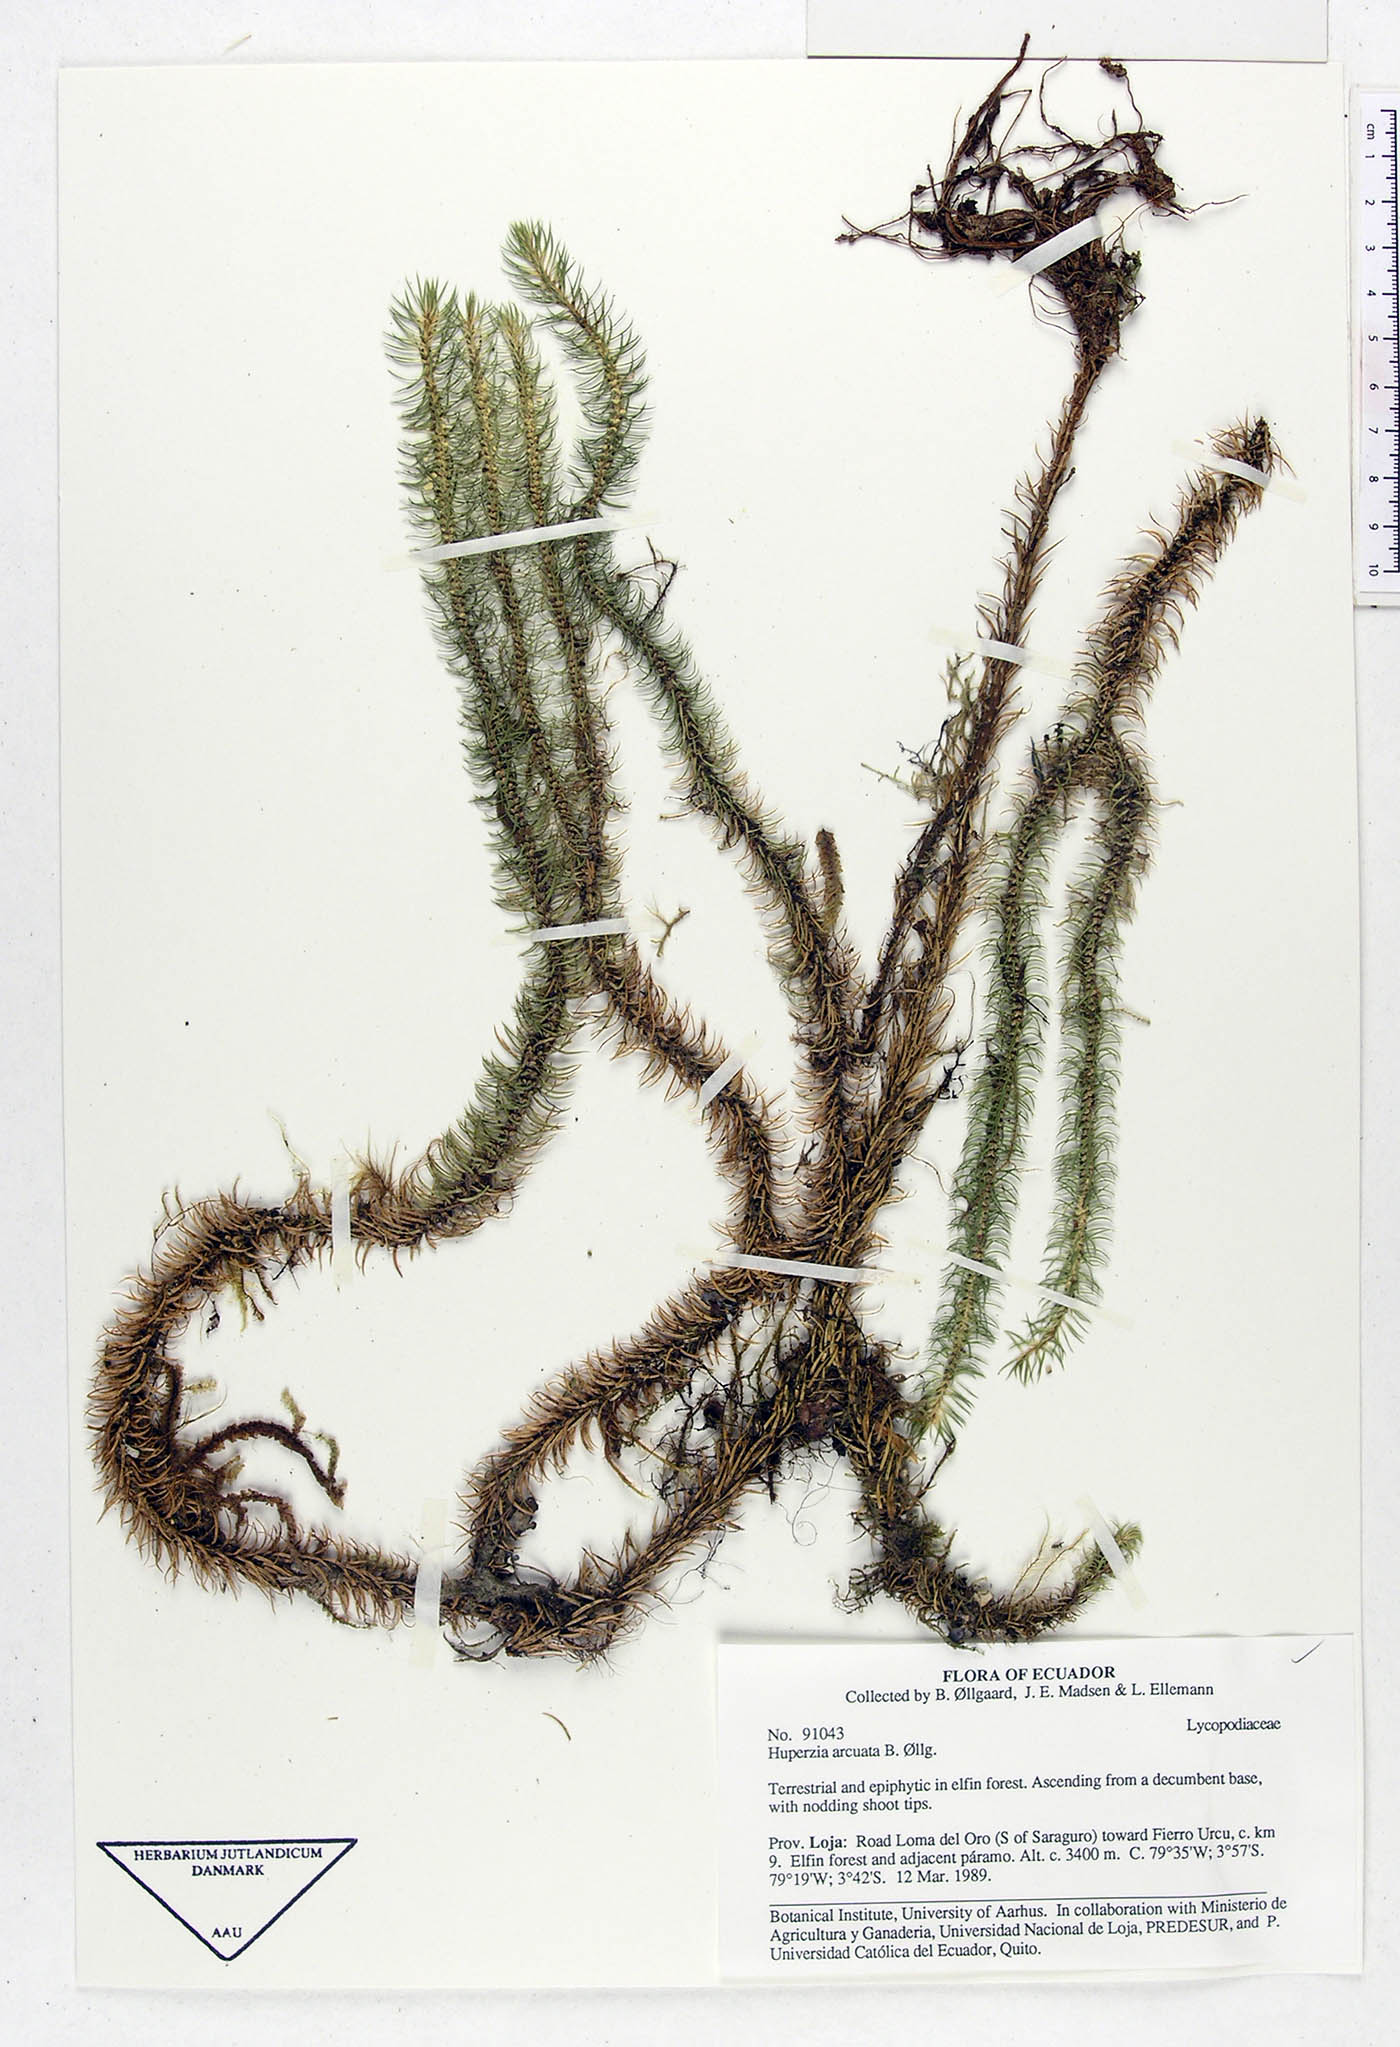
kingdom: Plantae
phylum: Tracheophyta
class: Lycopodiopsida
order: Lycopodiales
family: Lycopodiaceae
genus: Phlegmariurus
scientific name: Phlegmariurus arcuatus
